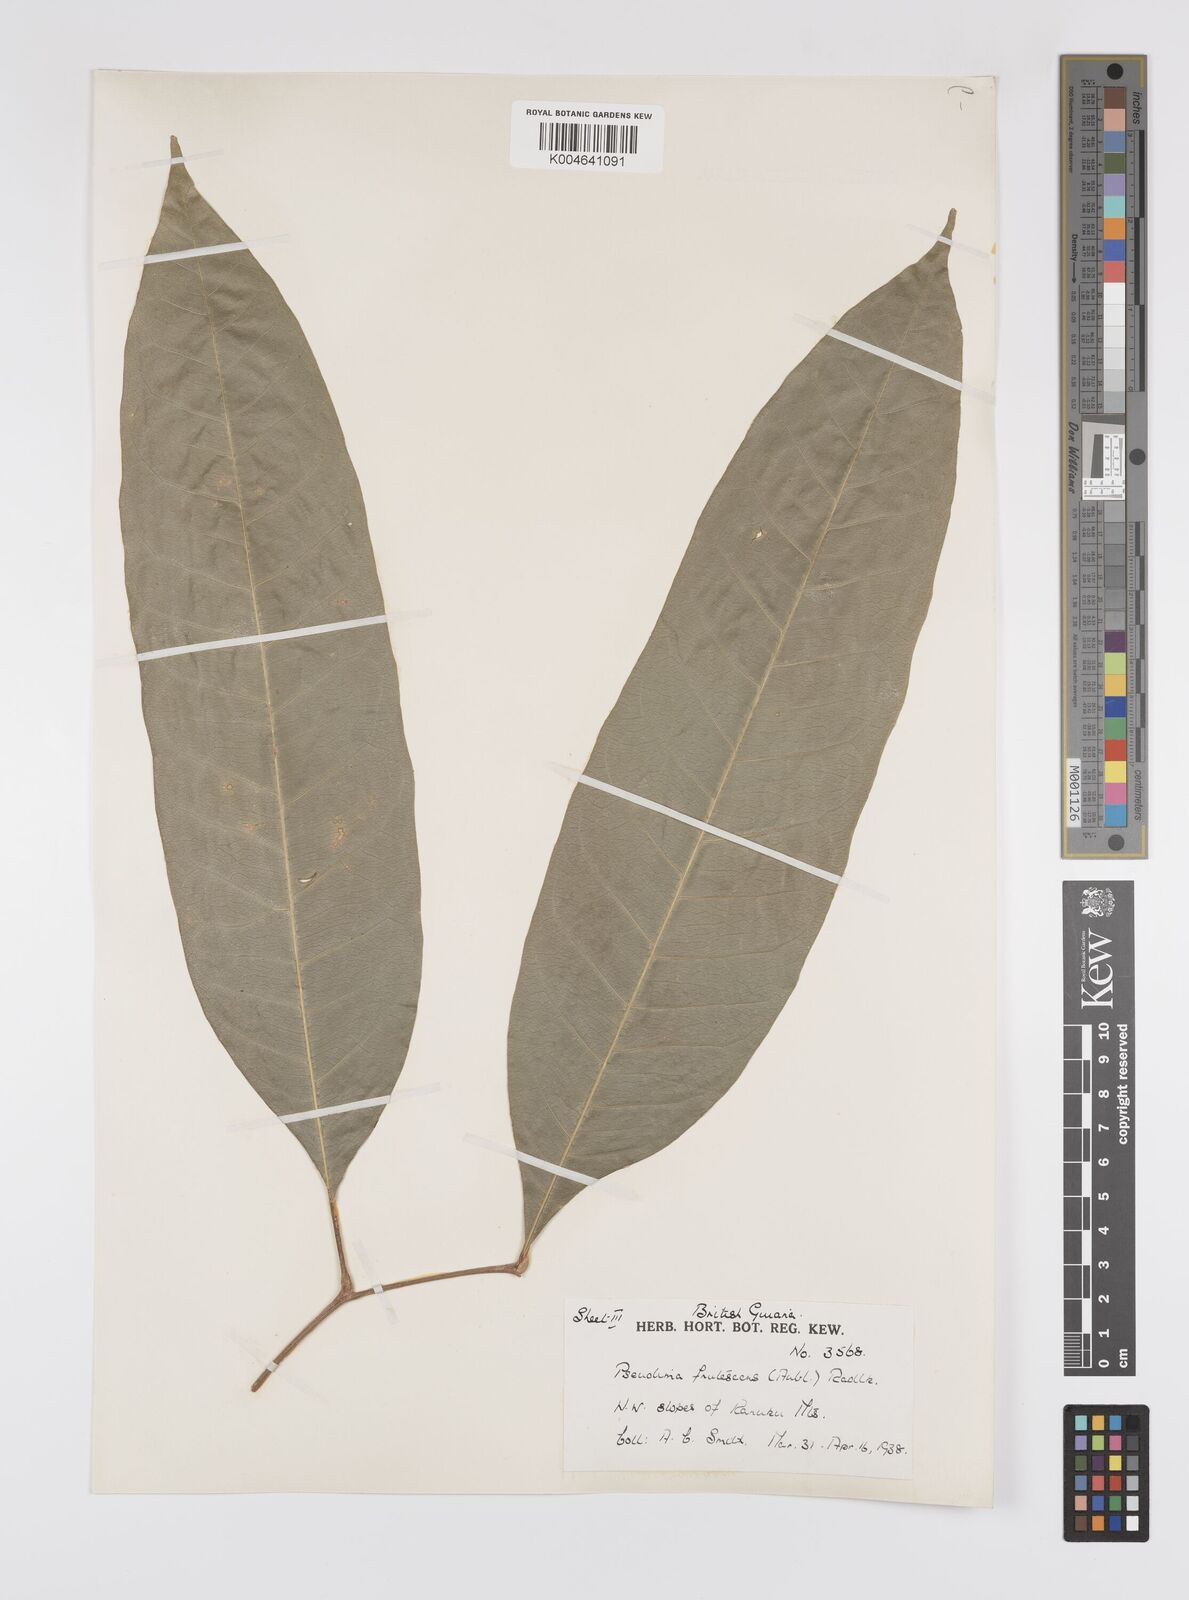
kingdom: Plantae
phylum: Tracheophyta
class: Magnoliopsida
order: Sapindales
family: Sapindaceae
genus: Pseudima
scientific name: Pseudima frutescens
